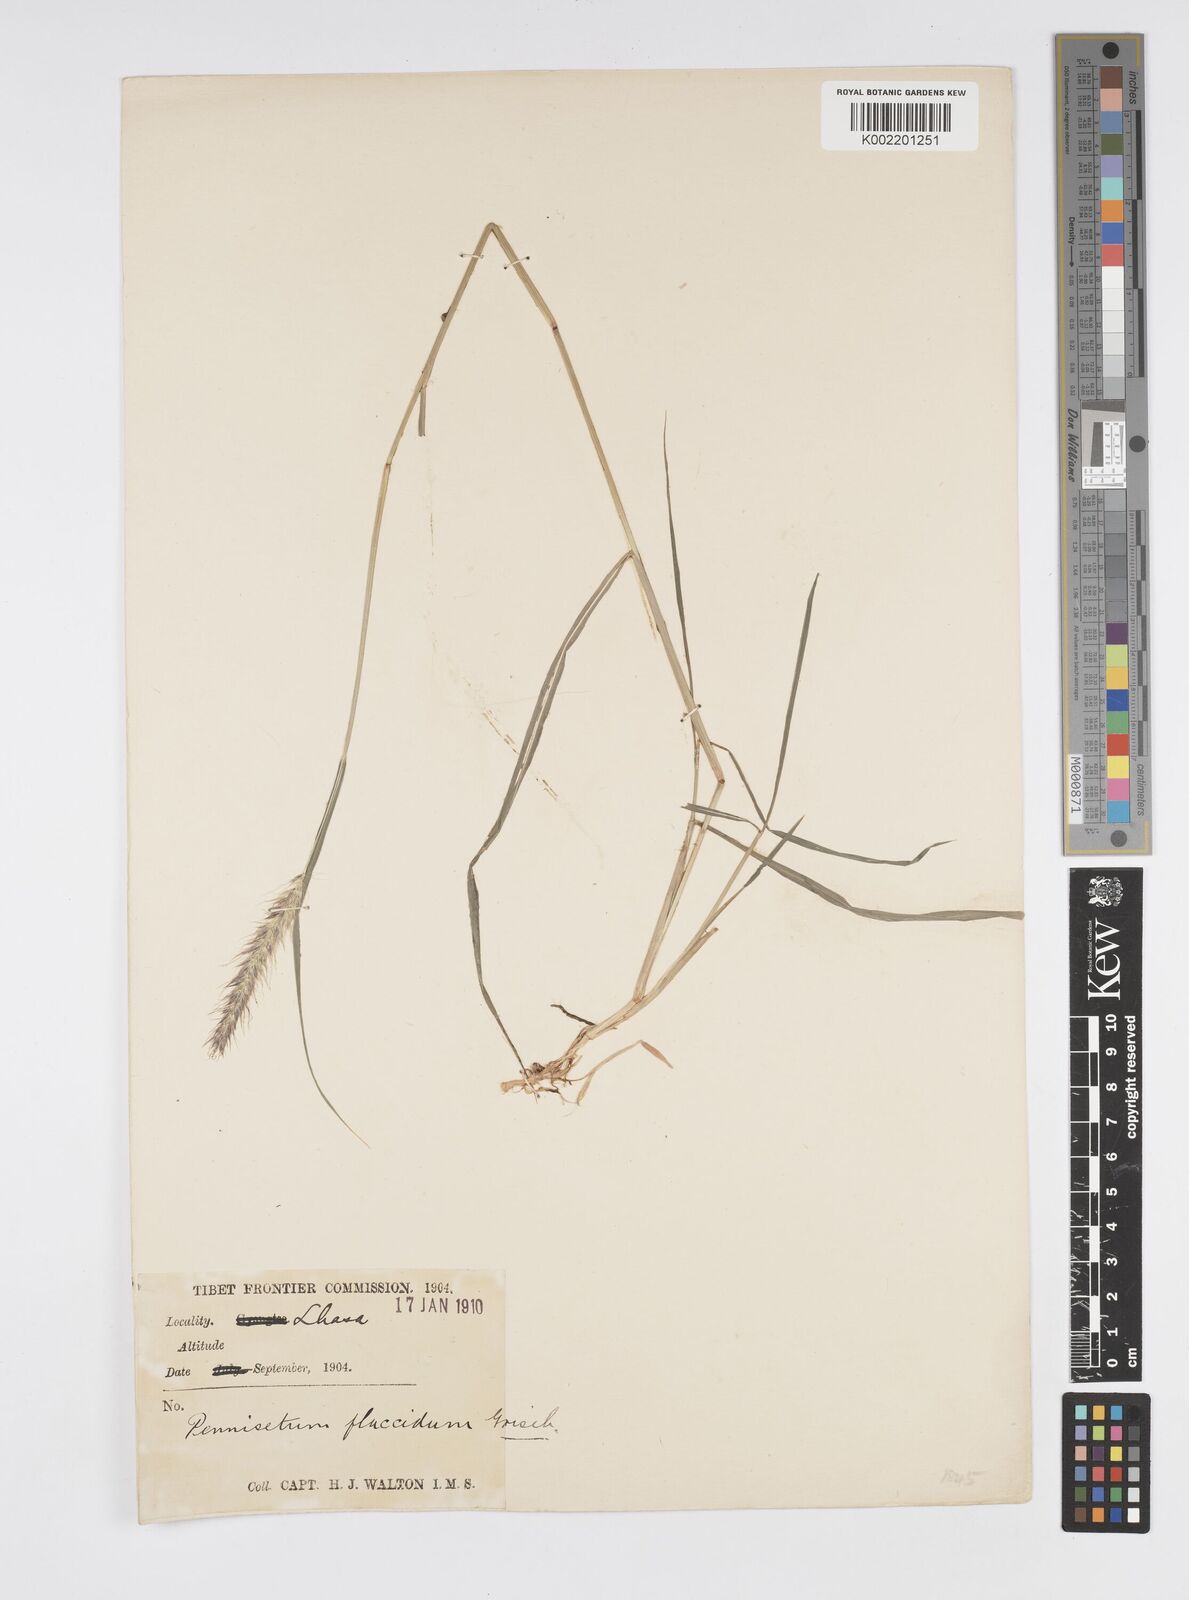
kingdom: Plantae
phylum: Tracheophyta
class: Liliopsida
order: Poales
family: Poaceae
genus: Cenchrus
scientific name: Cenchrus flaccidus
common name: Flaccid grass
